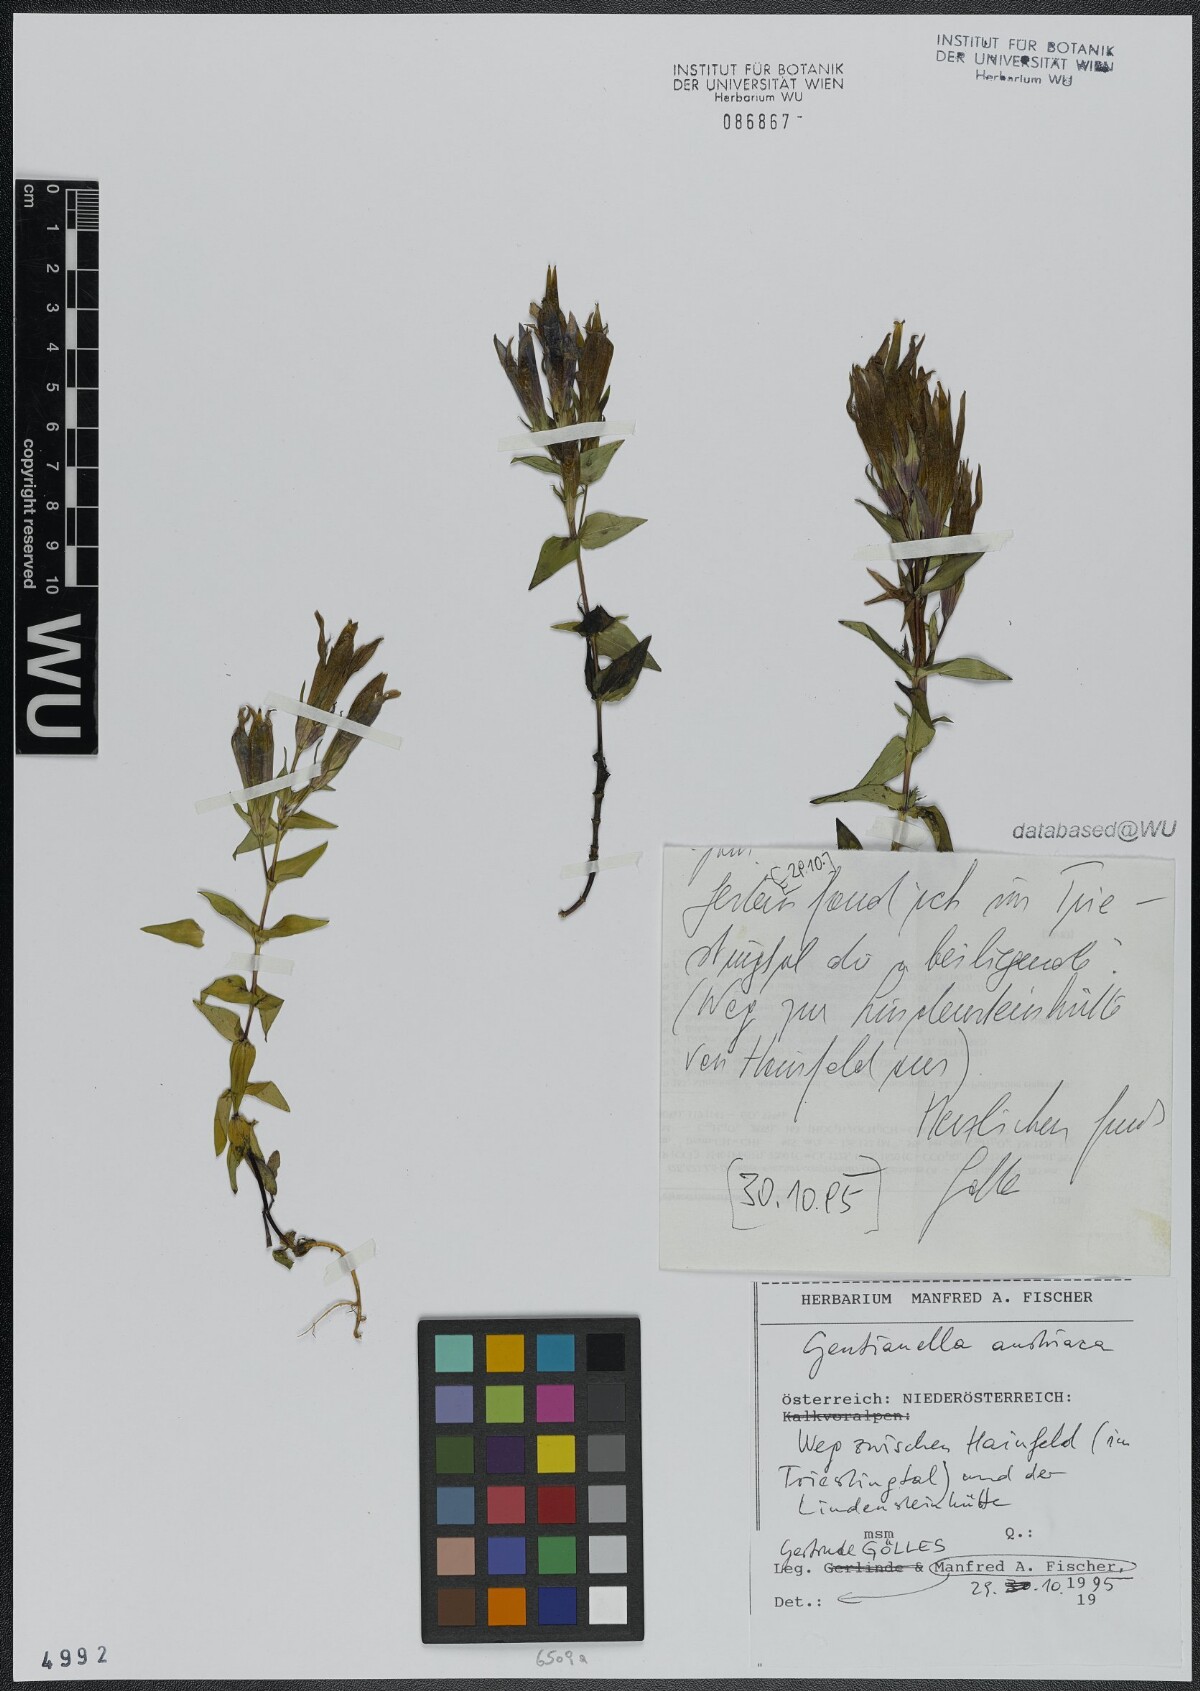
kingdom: Plantae
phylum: Tracheophyta
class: Magnoliopsida
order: Gentianales
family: Gentianaceae
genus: Gentianella
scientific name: Gentianella austriaca
